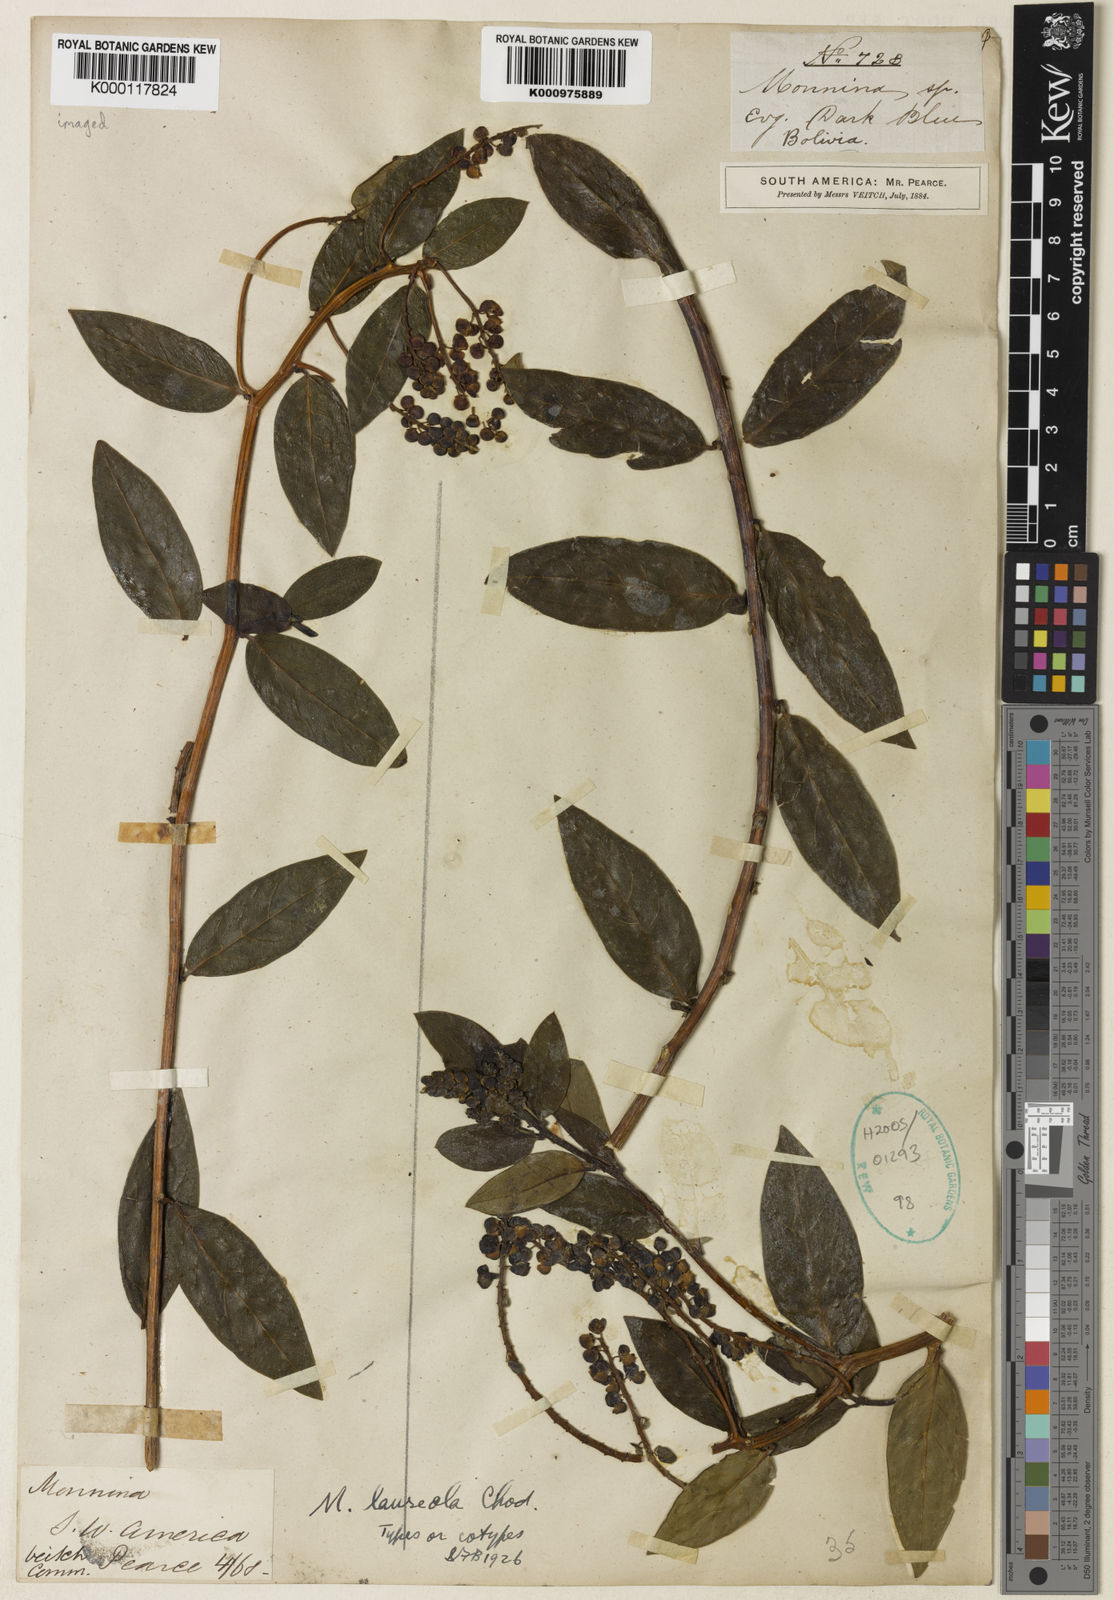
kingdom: Plantae
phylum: Tracheophyta
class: Magnoliopsida
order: Fabales
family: Polygalaceae
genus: Monnina
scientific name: Monnina laureola
